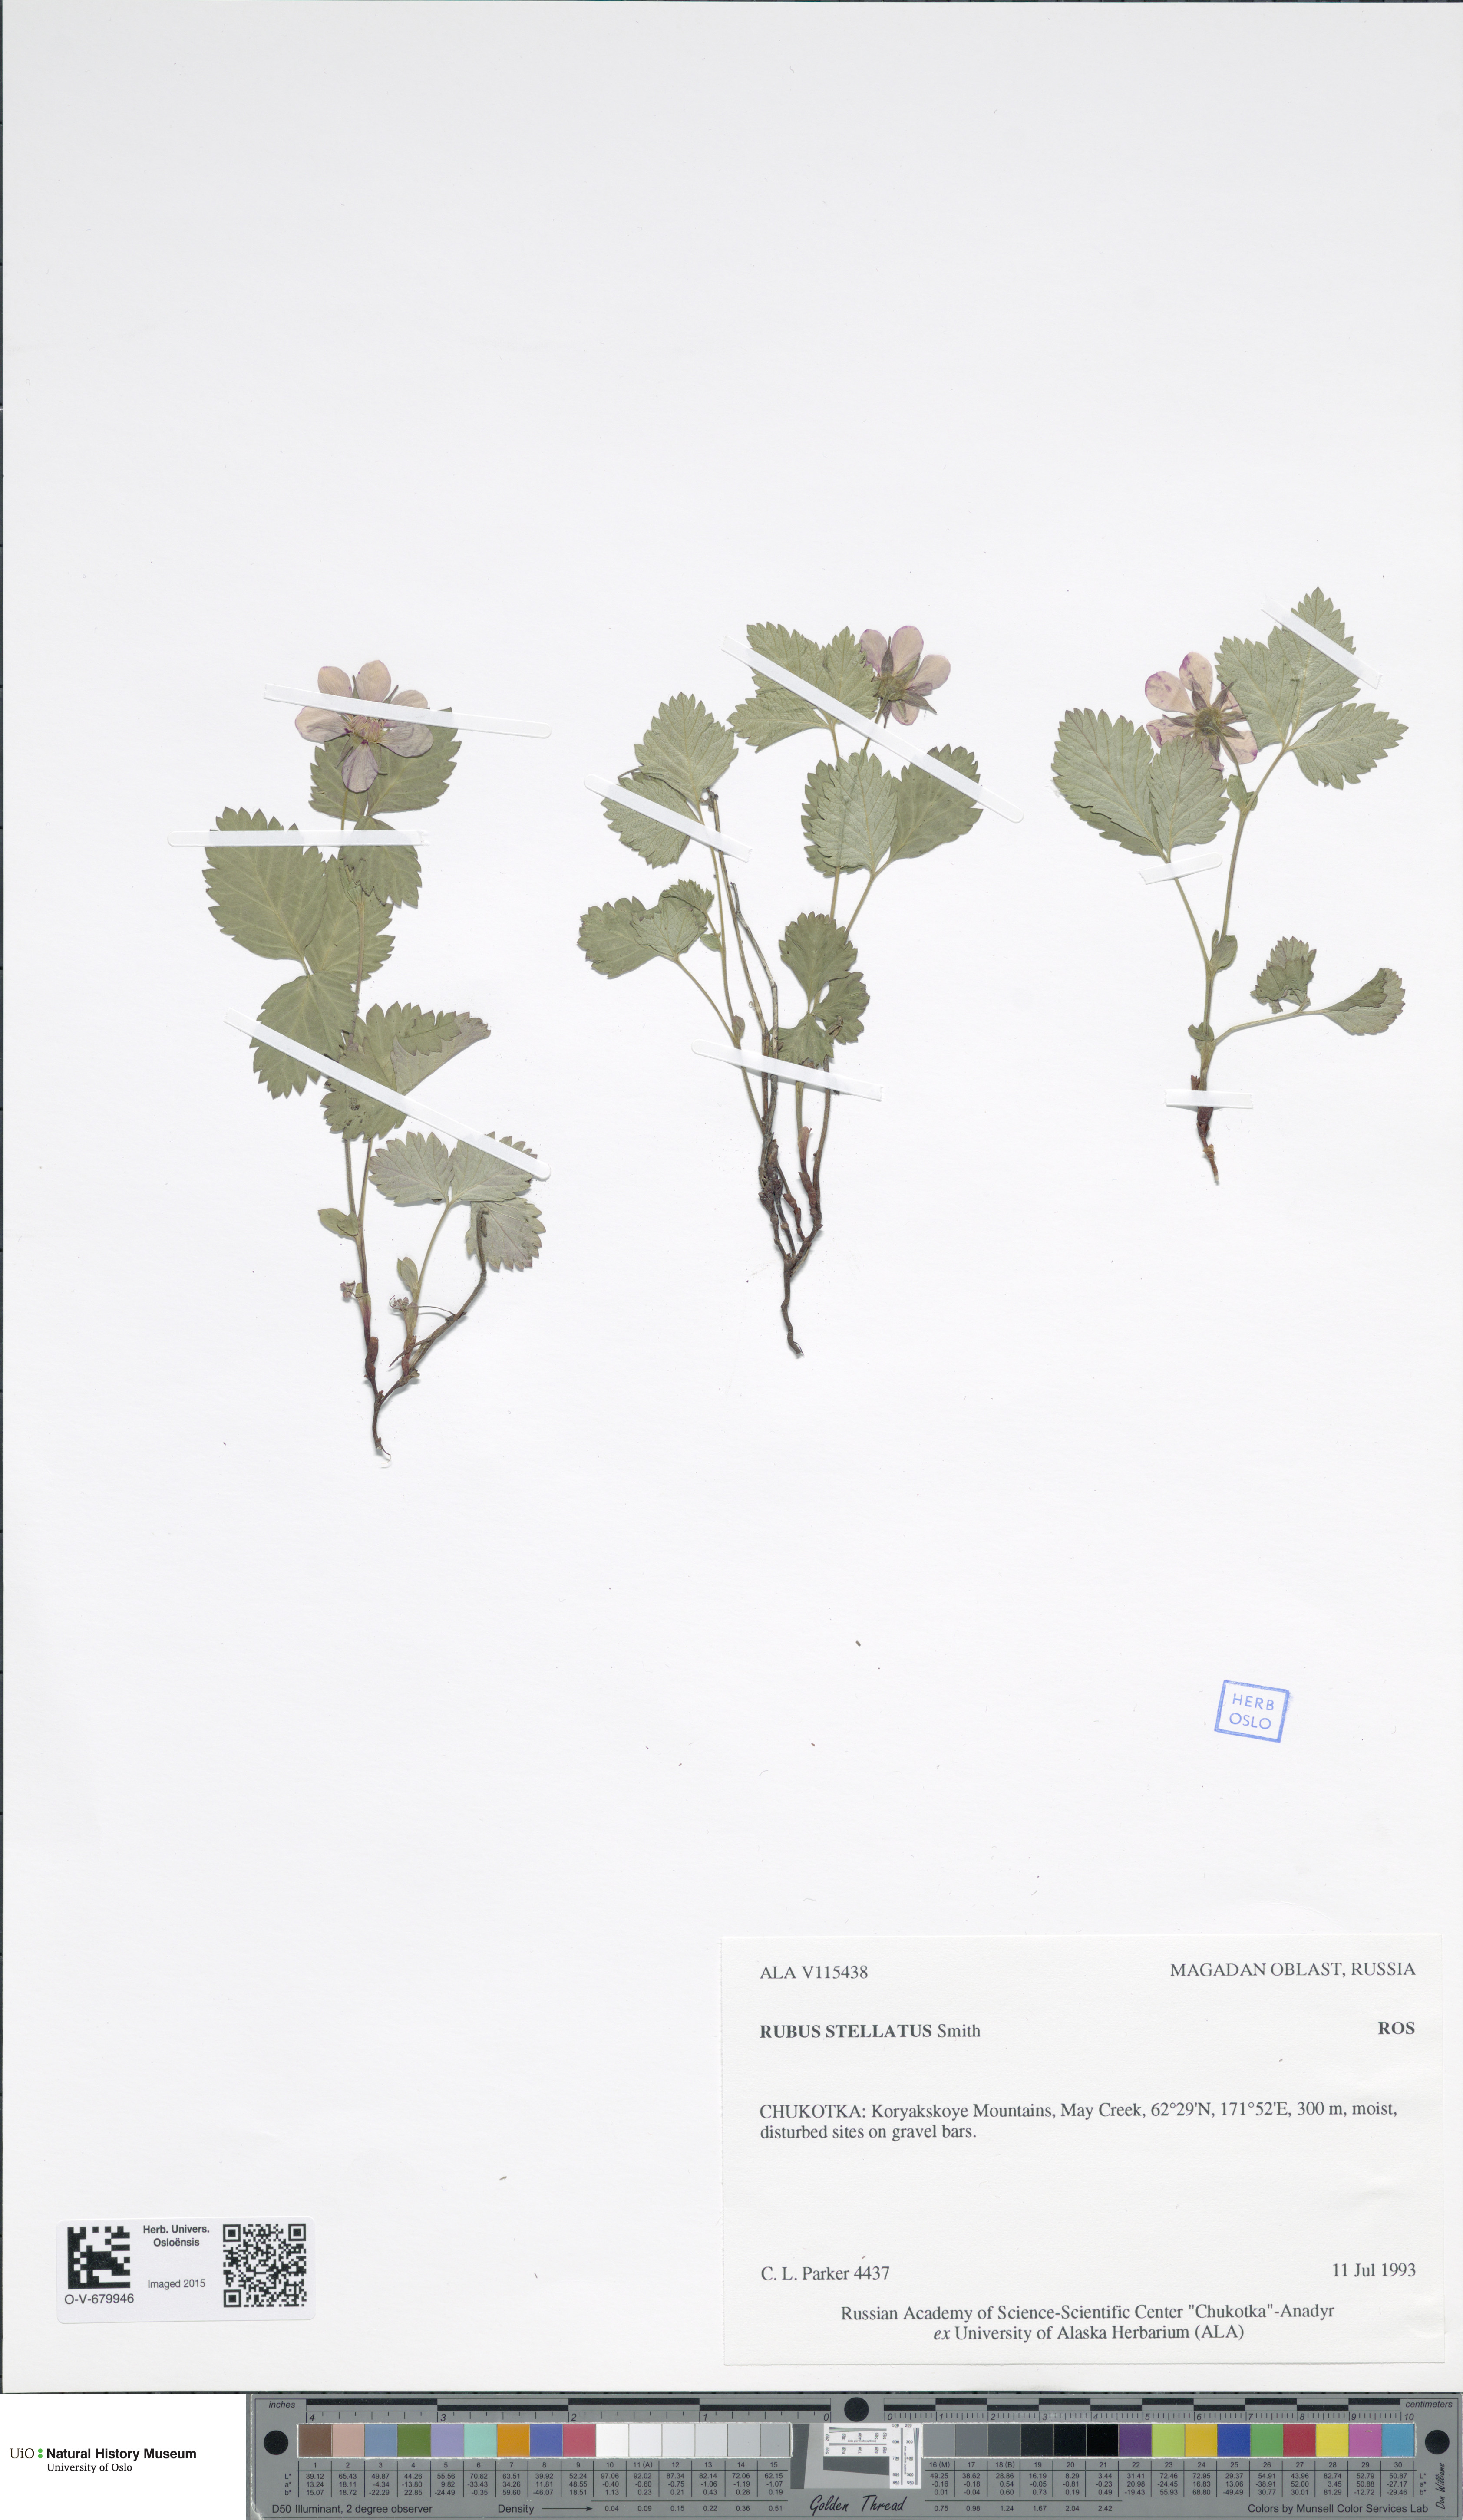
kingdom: Plantae
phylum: Tracheophyta
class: Magnoliopsida
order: Rosales
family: Rosaceae
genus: Rubus
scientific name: Rubus arcticus
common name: Arctic bramble
